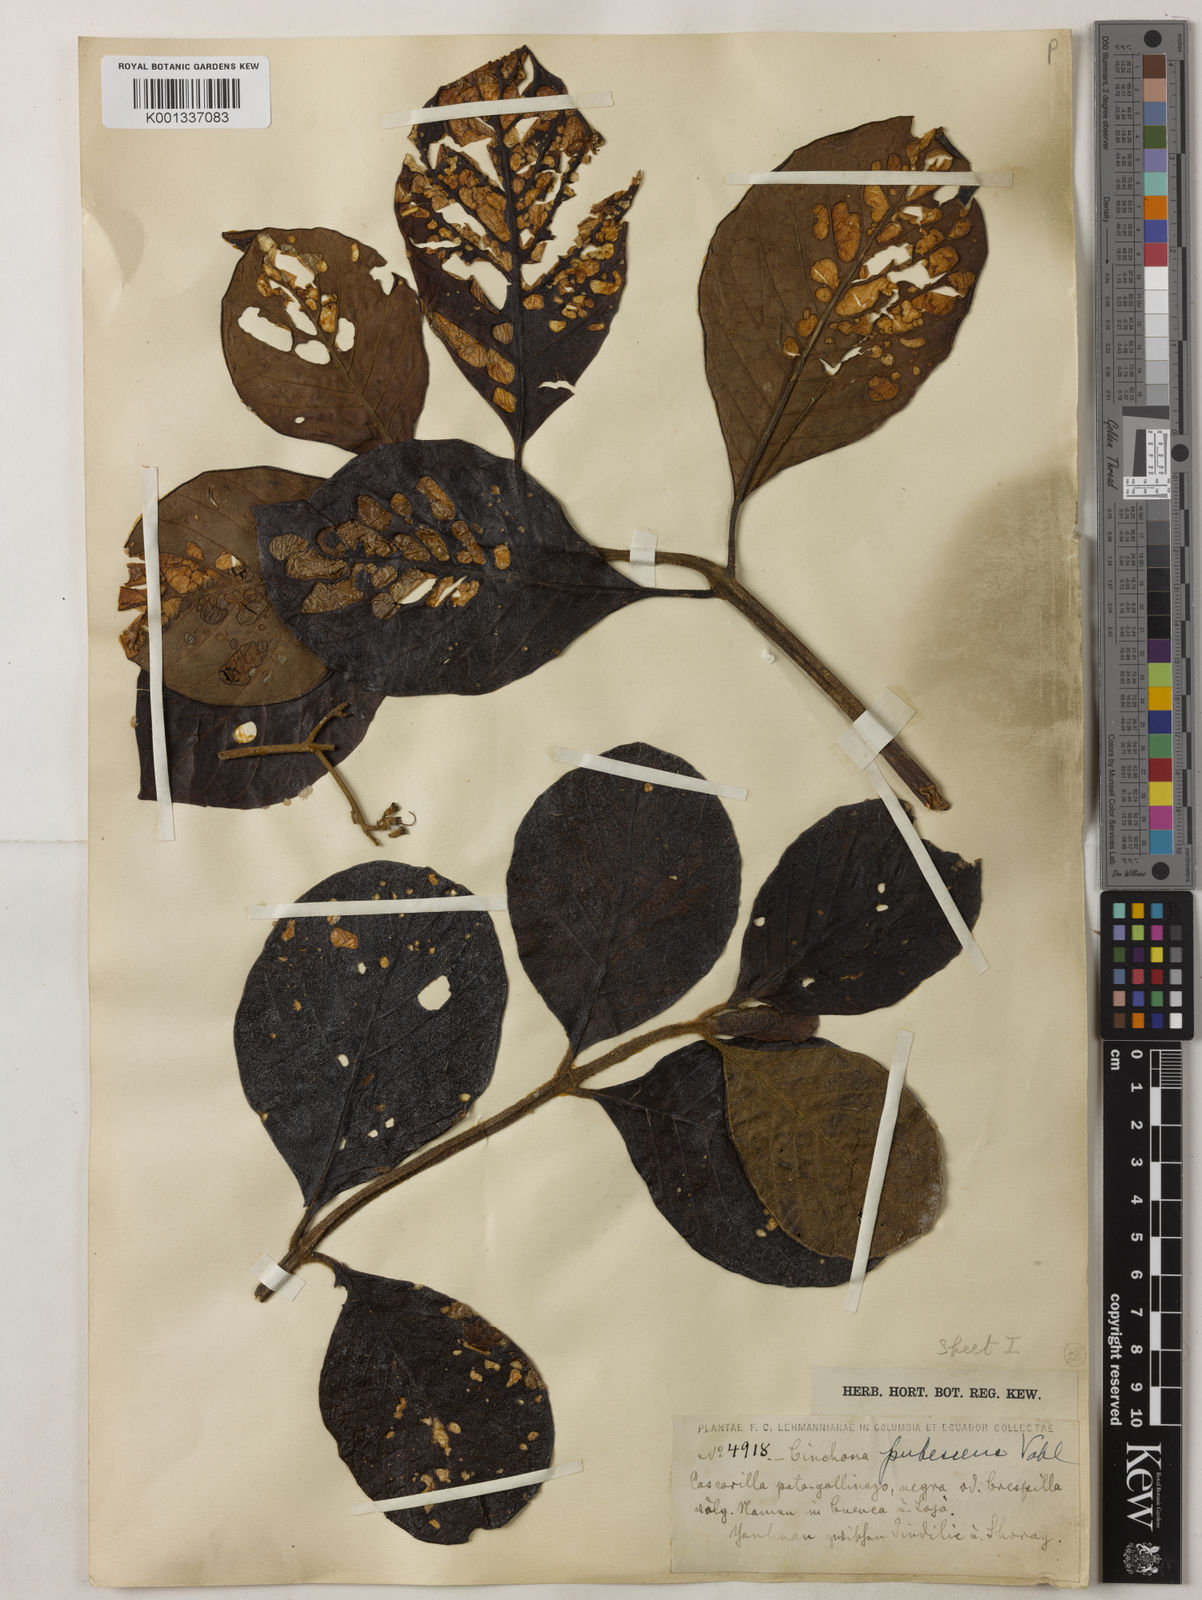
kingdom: Plantae
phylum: Tracheophyta
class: Magnoliopsida
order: Gentianales
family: Rubiaceae
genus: Cinchona
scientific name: Cinchona pubescens
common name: Quinine
